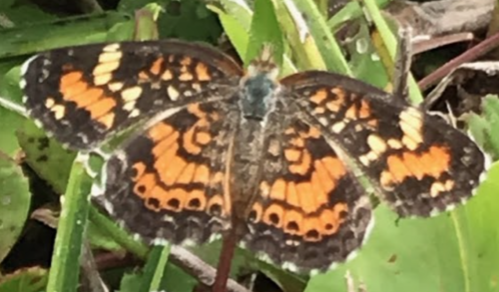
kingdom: Animalia
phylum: Arthropoda
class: Insecta
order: Lepidoptera
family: Nymphalidae
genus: Phyciodes
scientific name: Phyciodes phaon
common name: Phaon Crescent
